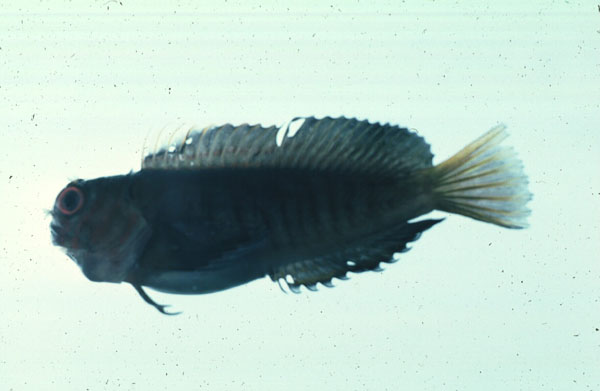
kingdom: Animalia
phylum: Chordata
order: Perciformes
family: Blenniidae
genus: Cirripectes
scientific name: Cirripectes castaneus
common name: Chestnut blenny
